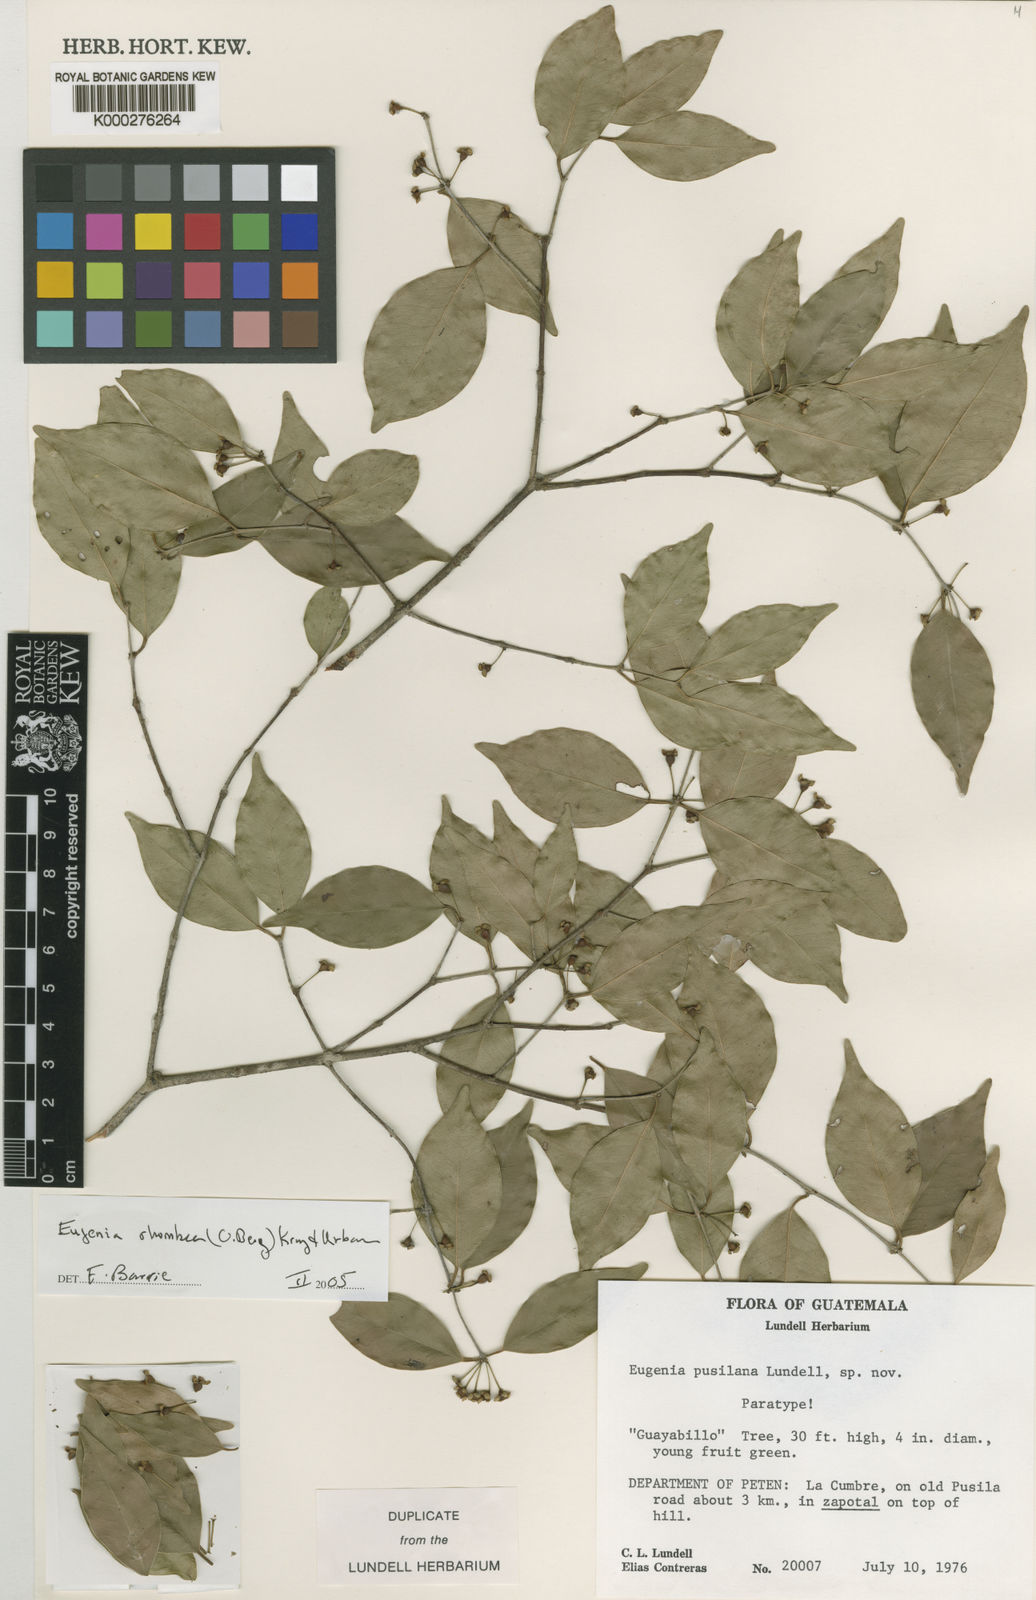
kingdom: Plantae
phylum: Tracheophyta
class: Magnoliopsida
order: Myrtales
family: Myrtaceae
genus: Eugenia
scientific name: Eugenia rhombea
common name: Pigeon berry
